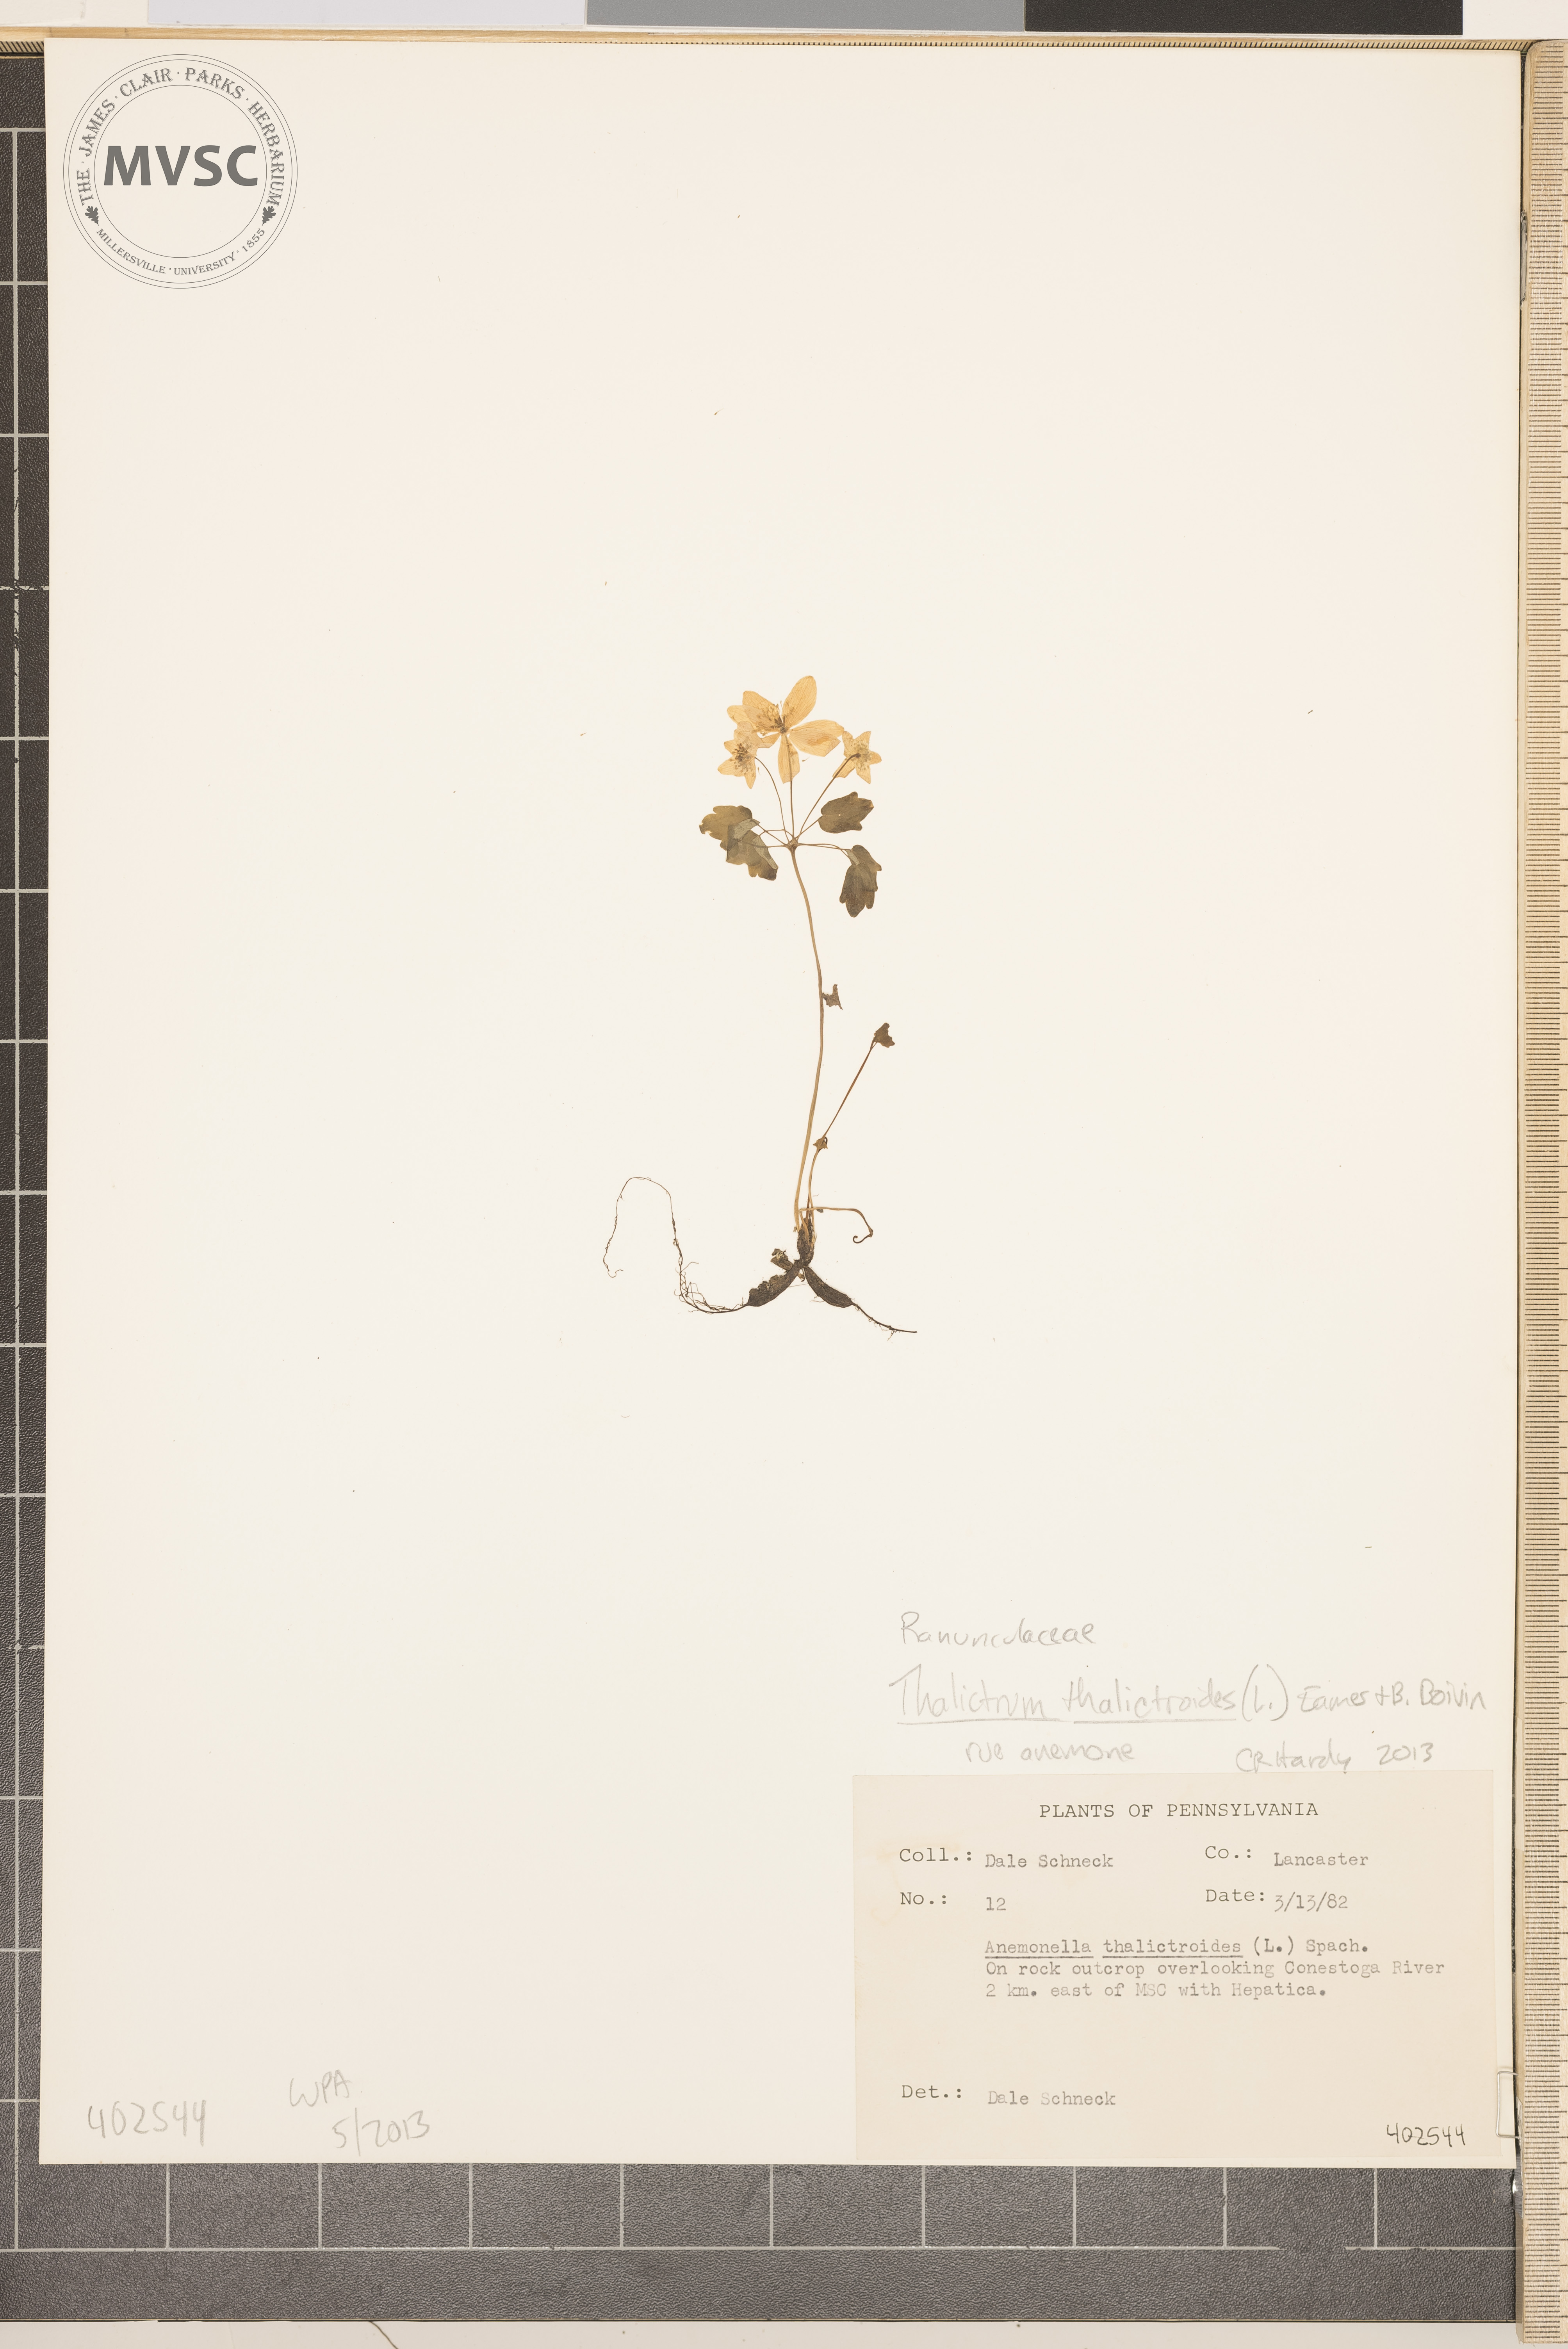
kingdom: Plantae
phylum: Tracheophyta
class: Magnoliopsida
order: Ranunculales
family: Ranunculaceae
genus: Thalictrum
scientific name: Thalictrum thalictroides
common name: Rue anemone
